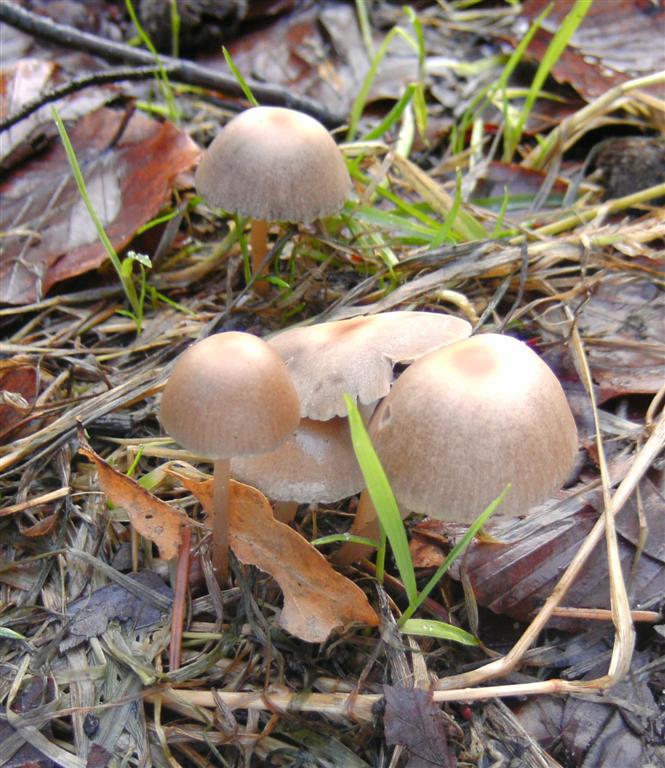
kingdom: Fungi
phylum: Basidiomycota
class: Agaricomycetes
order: Agaricales
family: Psathyrellaceae
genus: Psathyrella
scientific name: Psathyrella microrhiza
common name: rod-mørkhat
